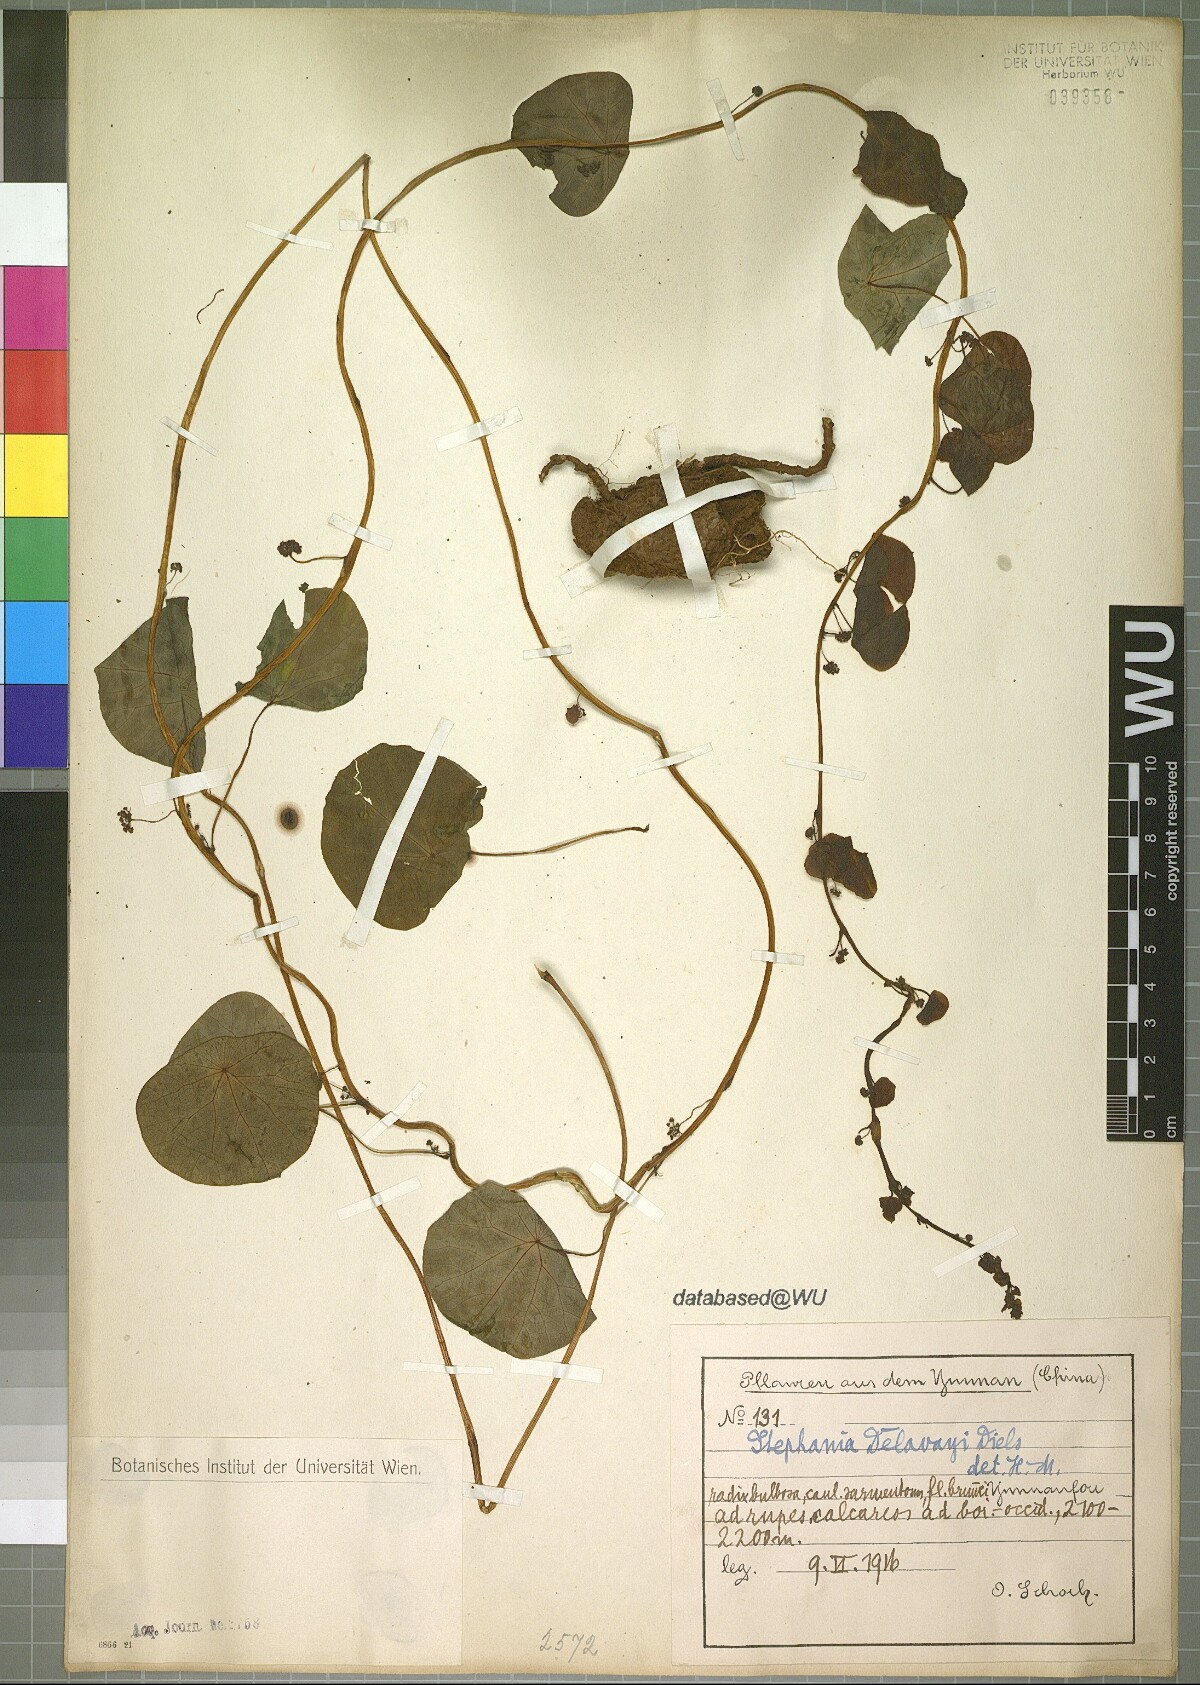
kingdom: Plantae
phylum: Tracheophyta
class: Magnoliopsida
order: Ranunculales
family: Menispermaceae
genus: Stephania
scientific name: Stephania delavayi
